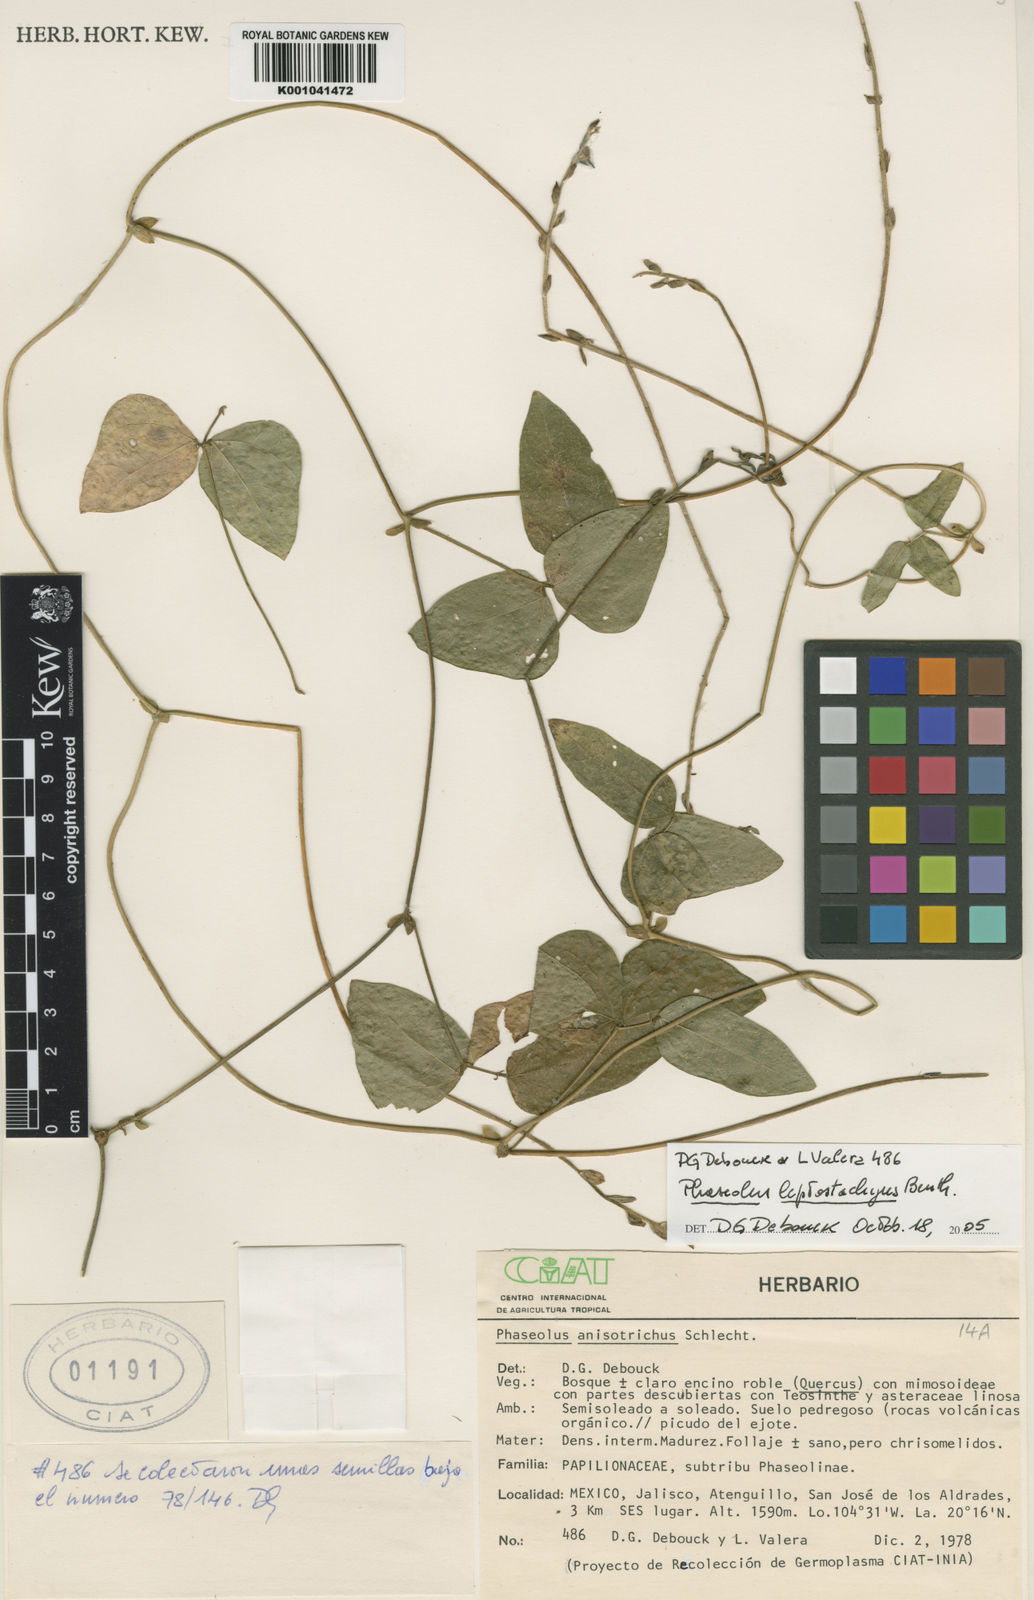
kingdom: Plantae
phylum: Tracheophyta
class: Magnoliopsida
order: Fabales
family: Fabaceae
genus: Phaseolus
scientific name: Phaseolus
